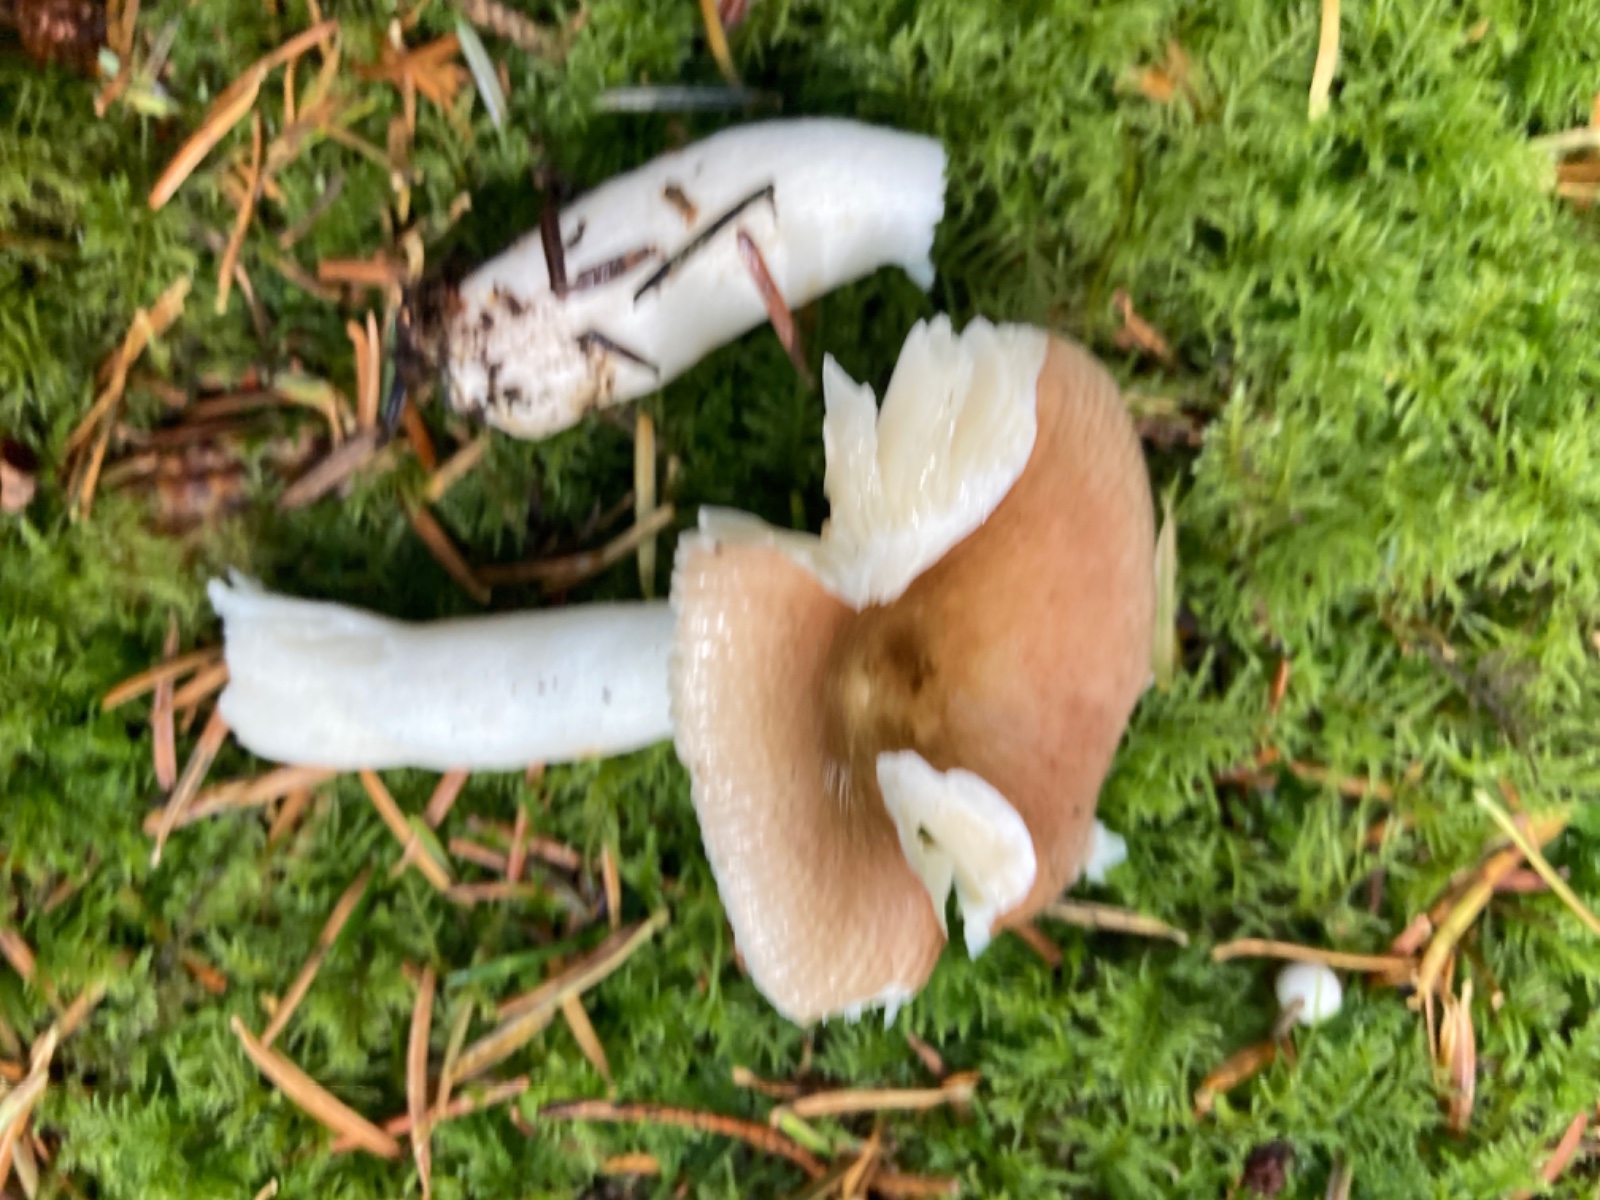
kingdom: Fungi
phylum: Basidiomycota
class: Agaricomycetes
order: Russulales
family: Russulaceae
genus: Russula
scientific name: Russula nauseosa
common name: spinkel skørhat
